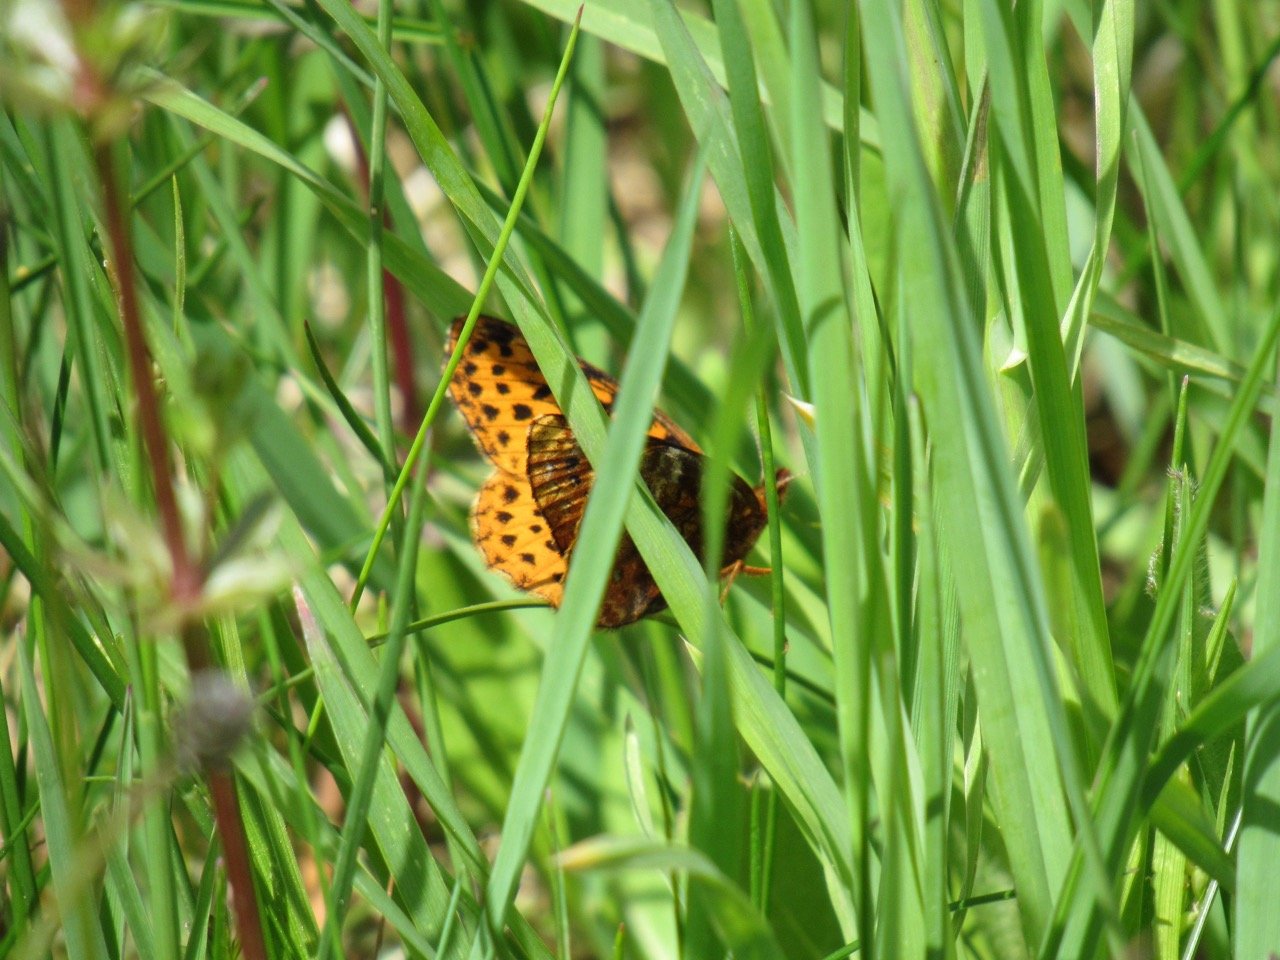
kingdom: Animalia
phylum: Arthropoda
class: Insecta
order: Lepidoptera
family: Nymphalidae
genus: Clossiana
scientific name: Clossiana toddi
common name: Meadow Fritillary
